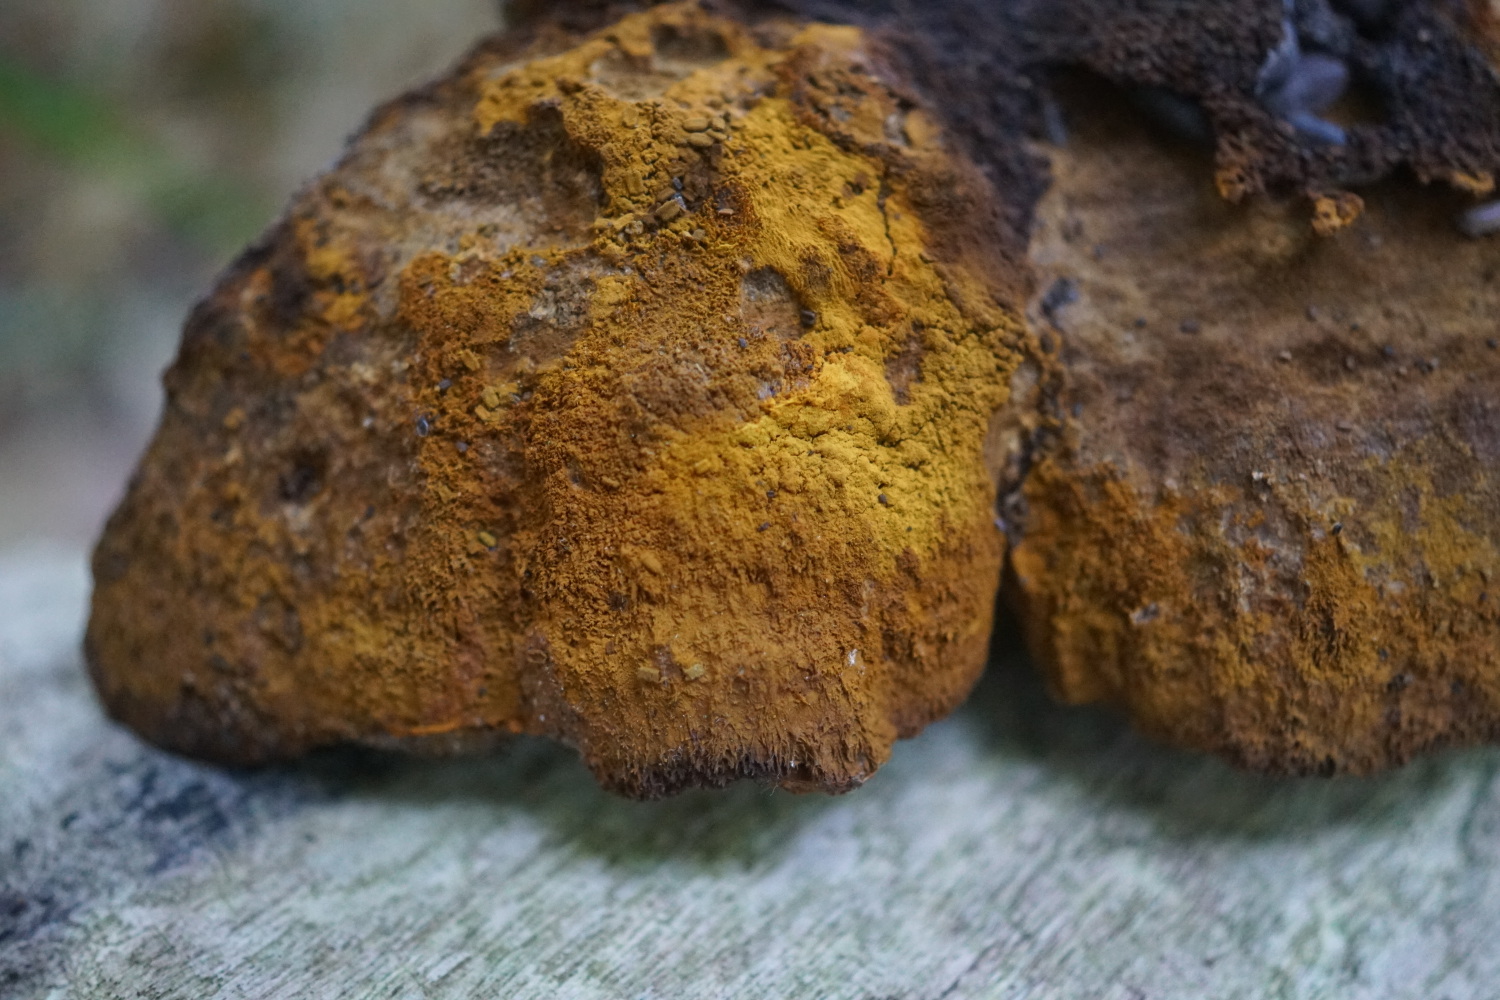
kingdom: Fungi
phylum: Basidiomycota
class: Agaricomycetes
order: Hymenochaetales
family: Hymenochaetaceae
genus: Inonotus
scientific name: Inonotus cuticularis
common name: kroghåret spejlporesvamp
